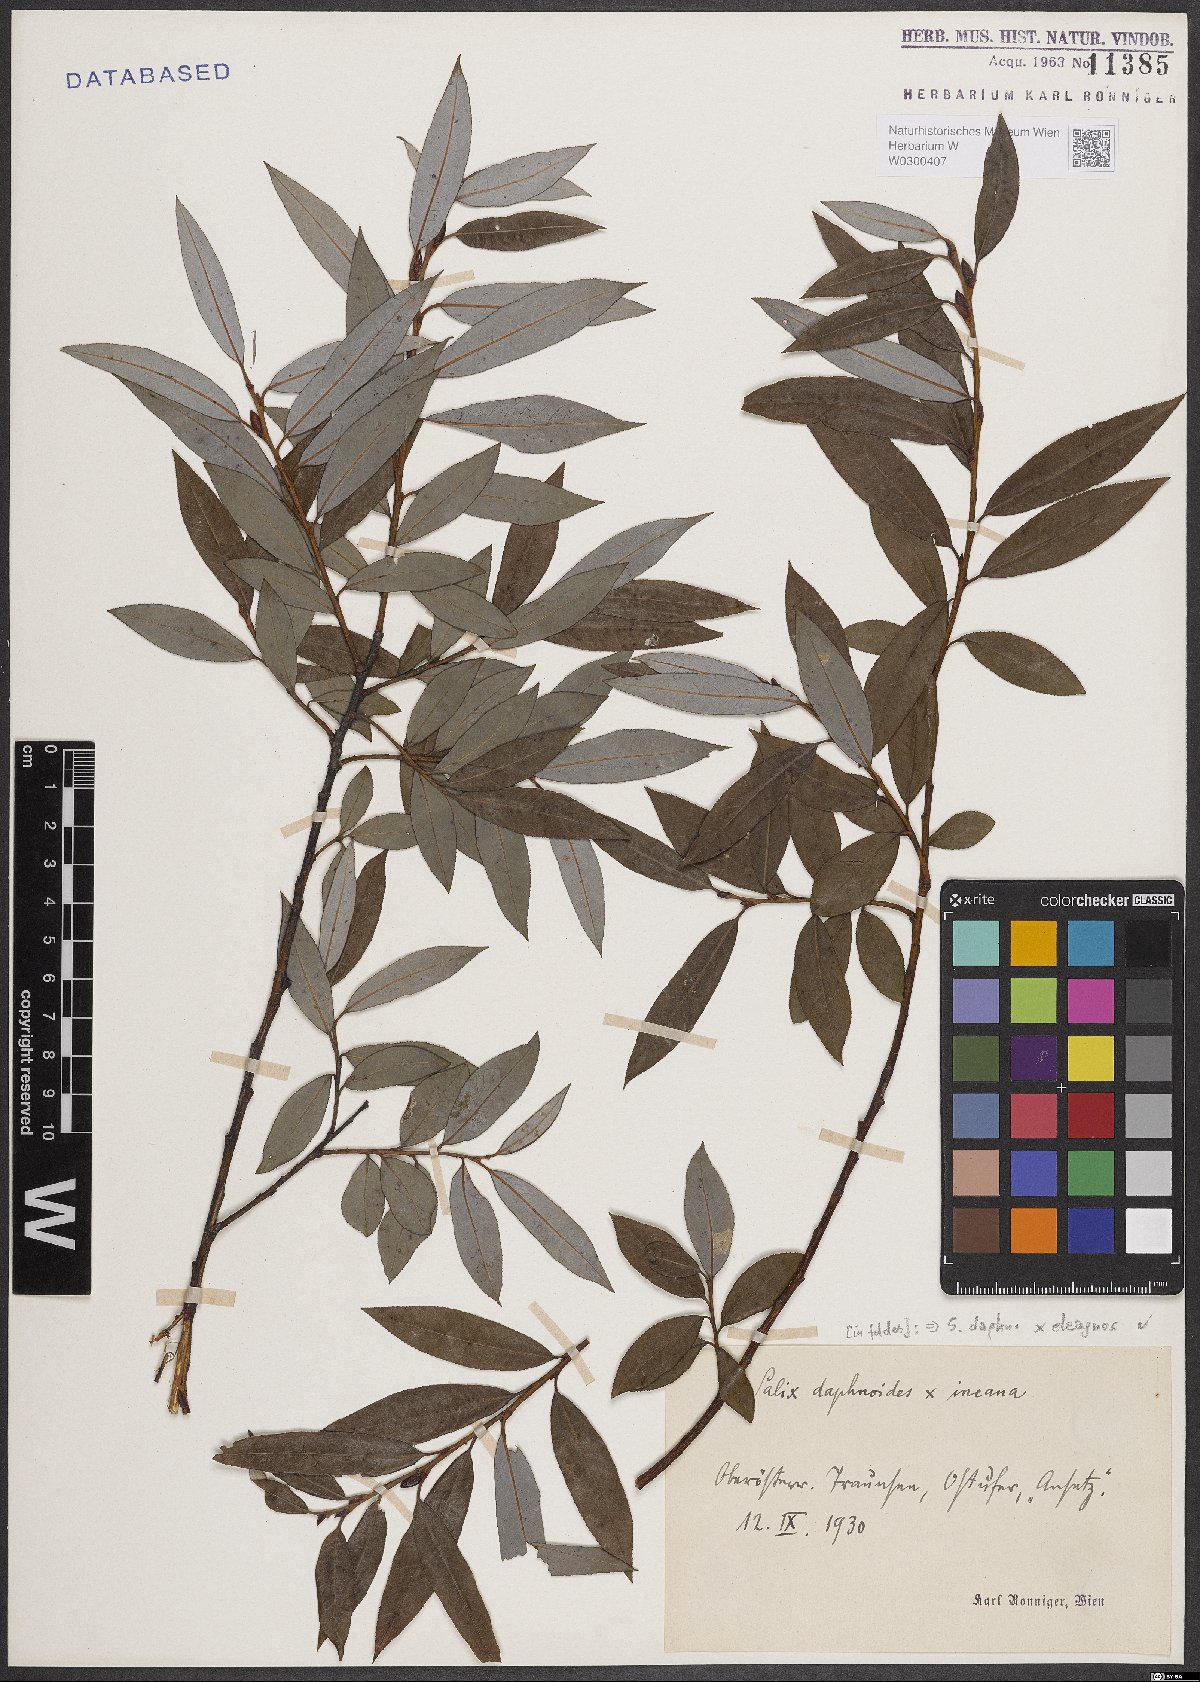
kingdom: Plantae
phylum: Tracheophyta
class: Magnoliopsida
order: Malpighiales
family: Salicaceae
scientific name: Salicaceae
